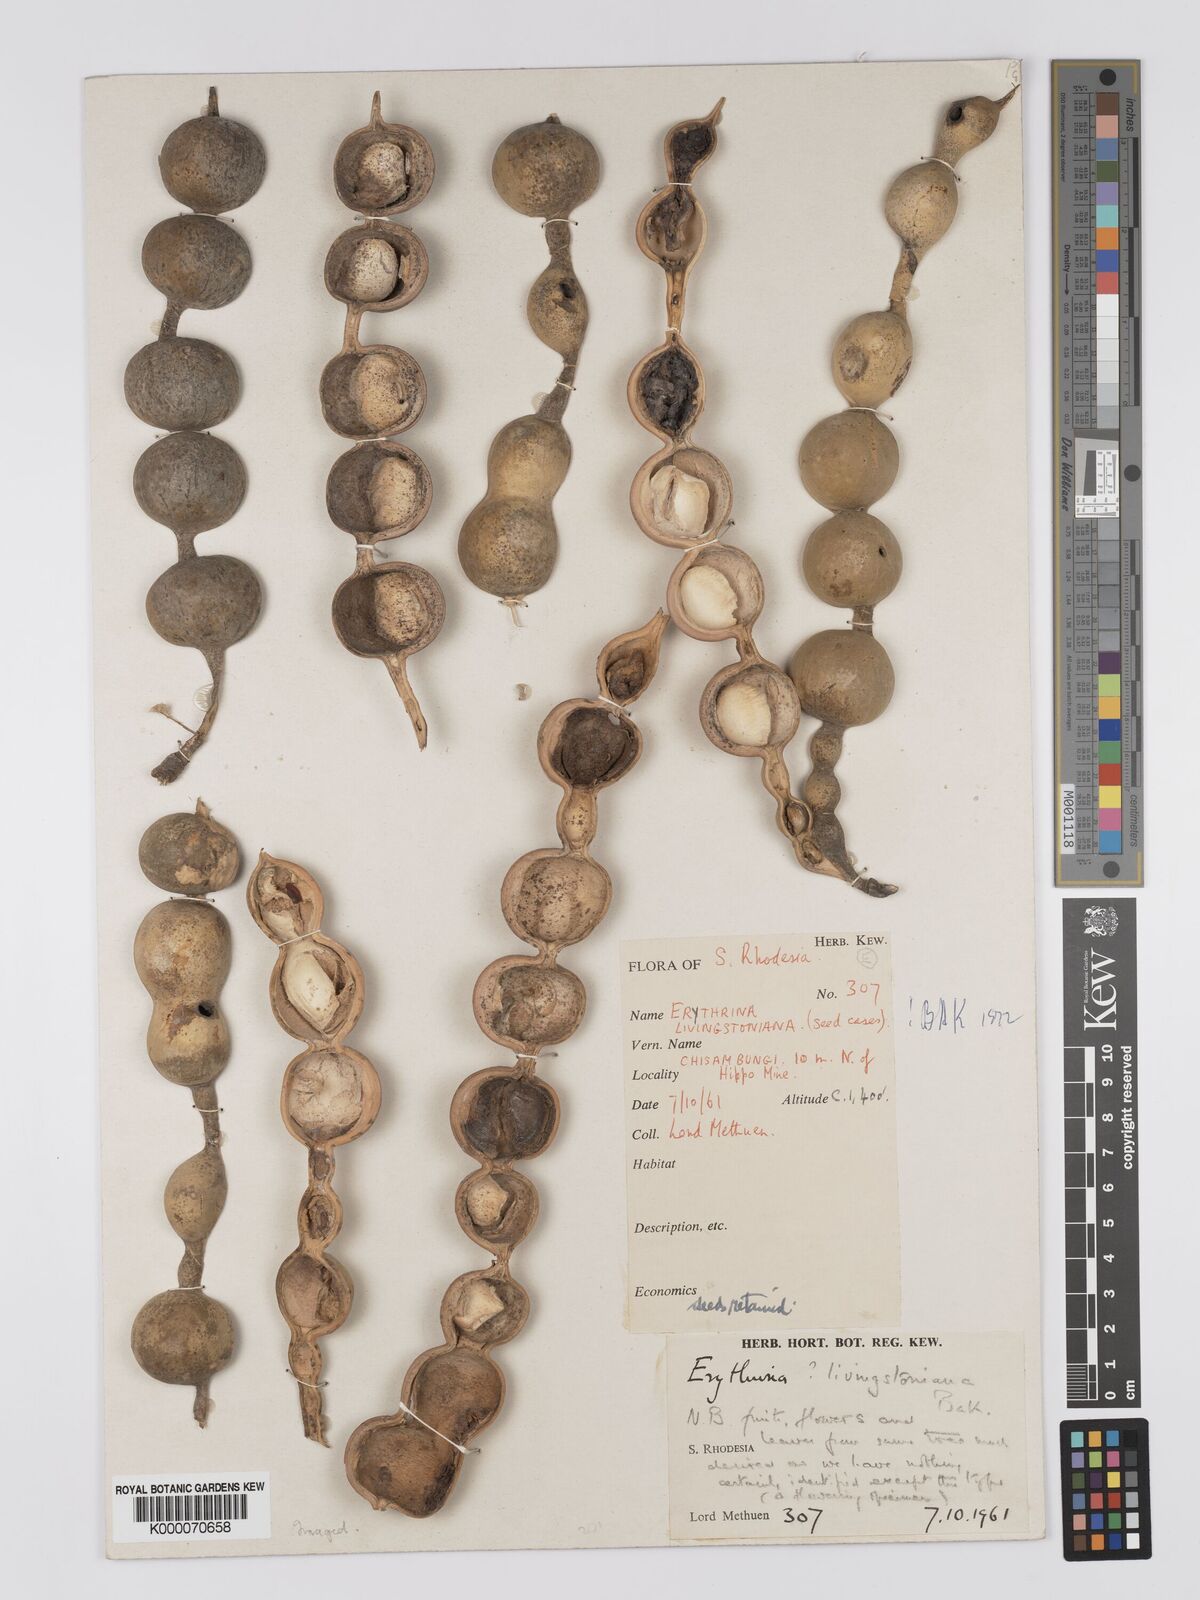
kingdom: Plantae
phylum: Tracheophyta
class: Magnoliopsida
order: Fabales
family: Fabaceae
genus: Erythrina
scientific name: Erythrina
